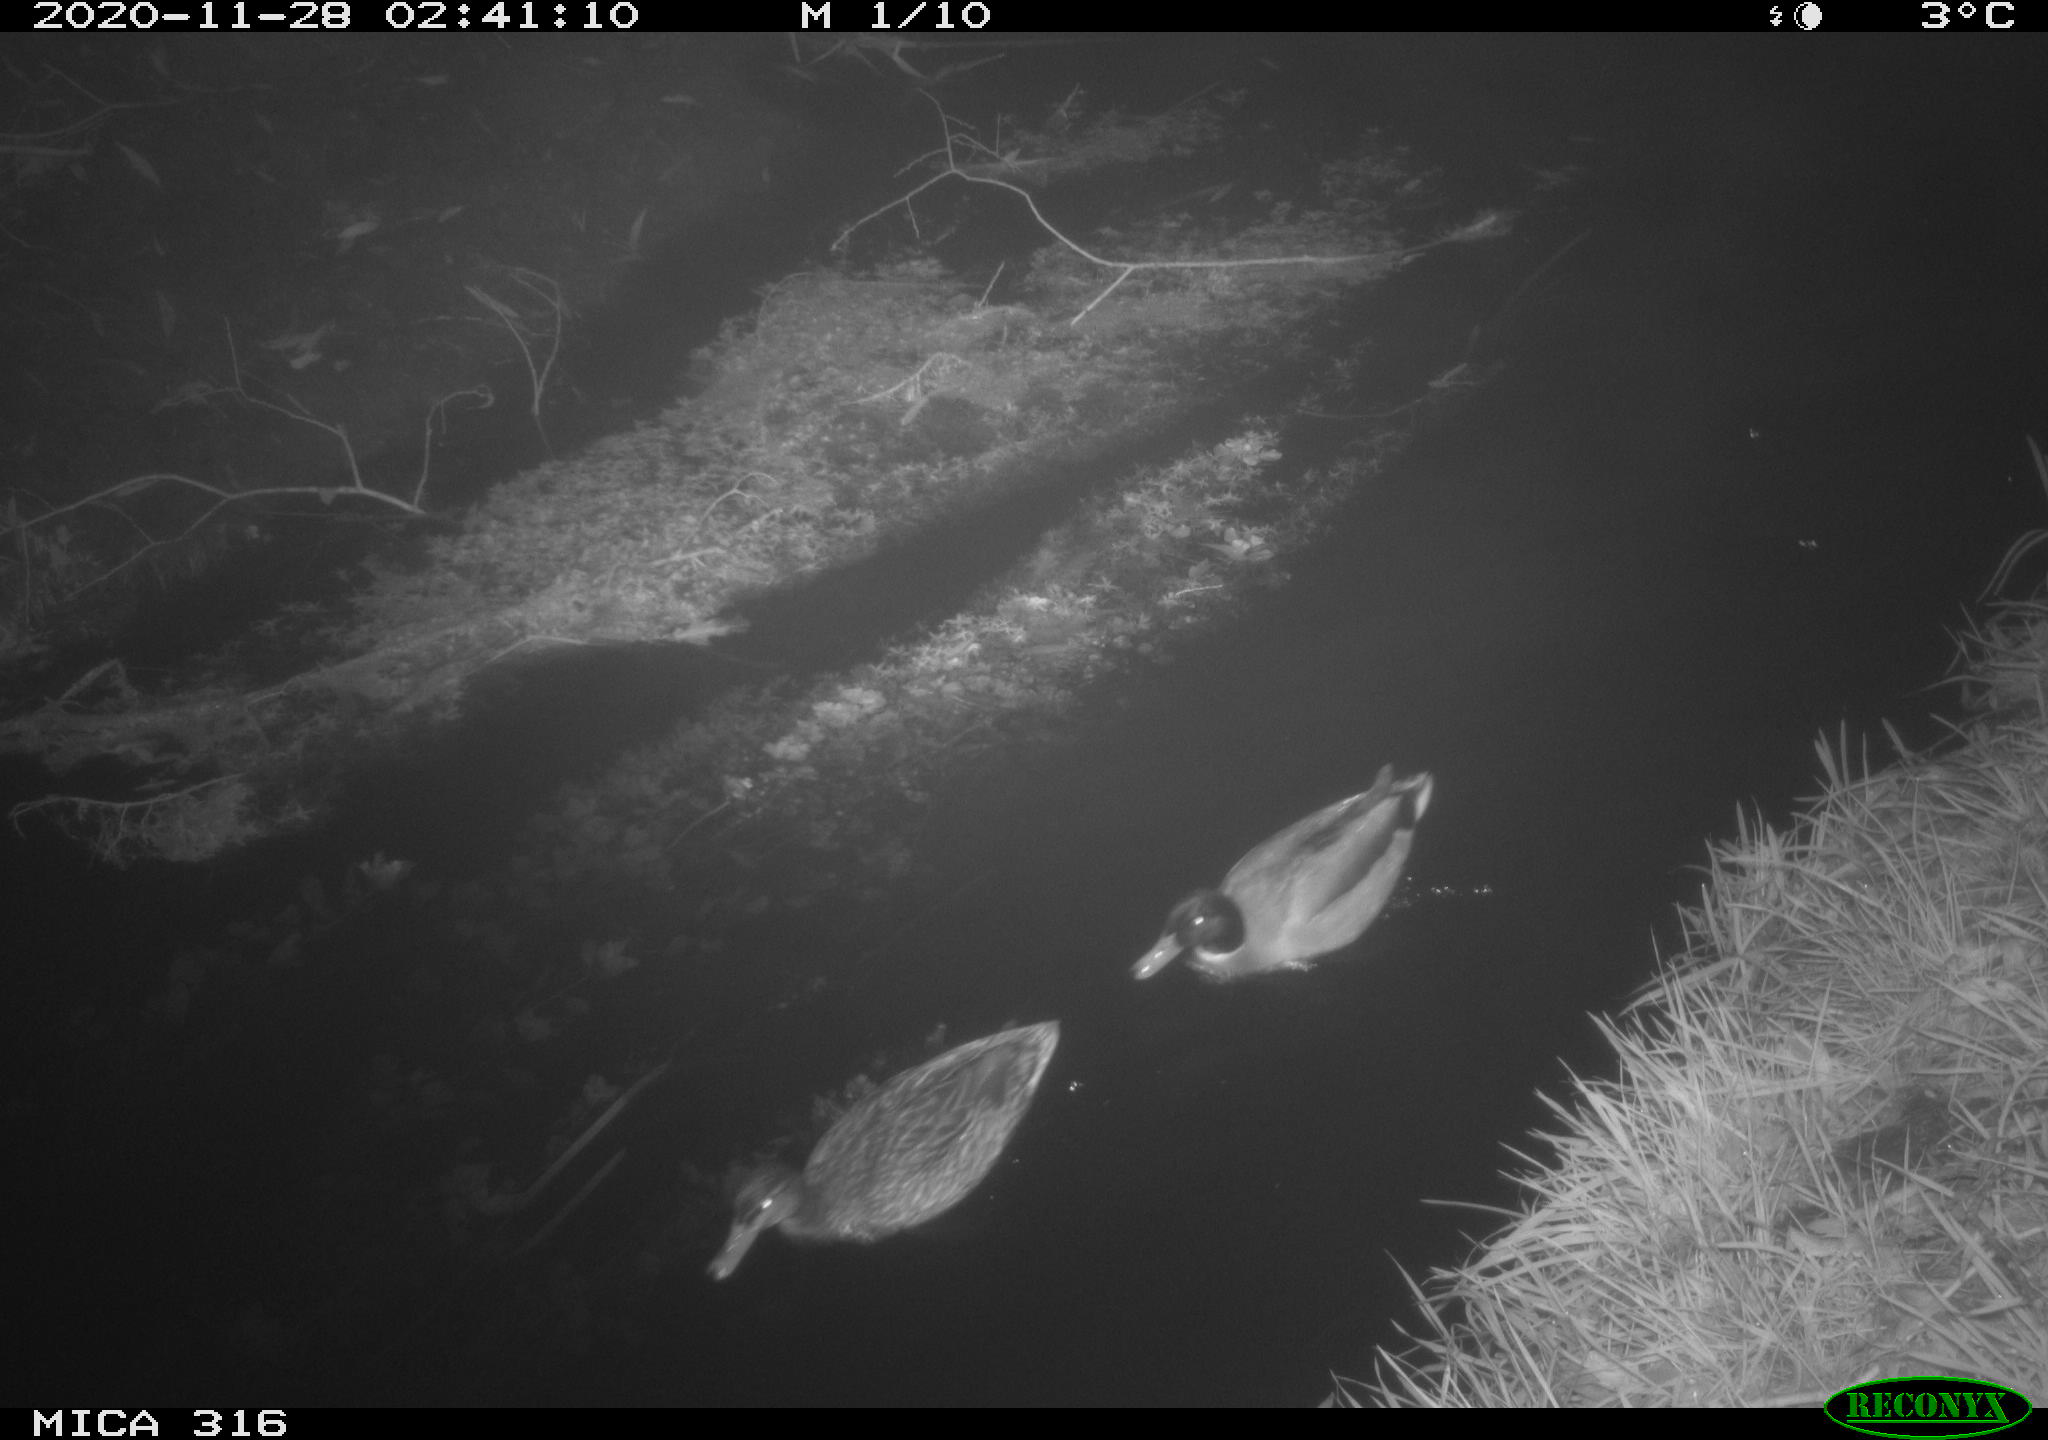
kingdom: Animalia
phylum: Chordata
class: Aves
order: Anseriformes
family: Anatidae
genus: Anas
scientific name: Anas platyrhynchos
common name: Mallard
